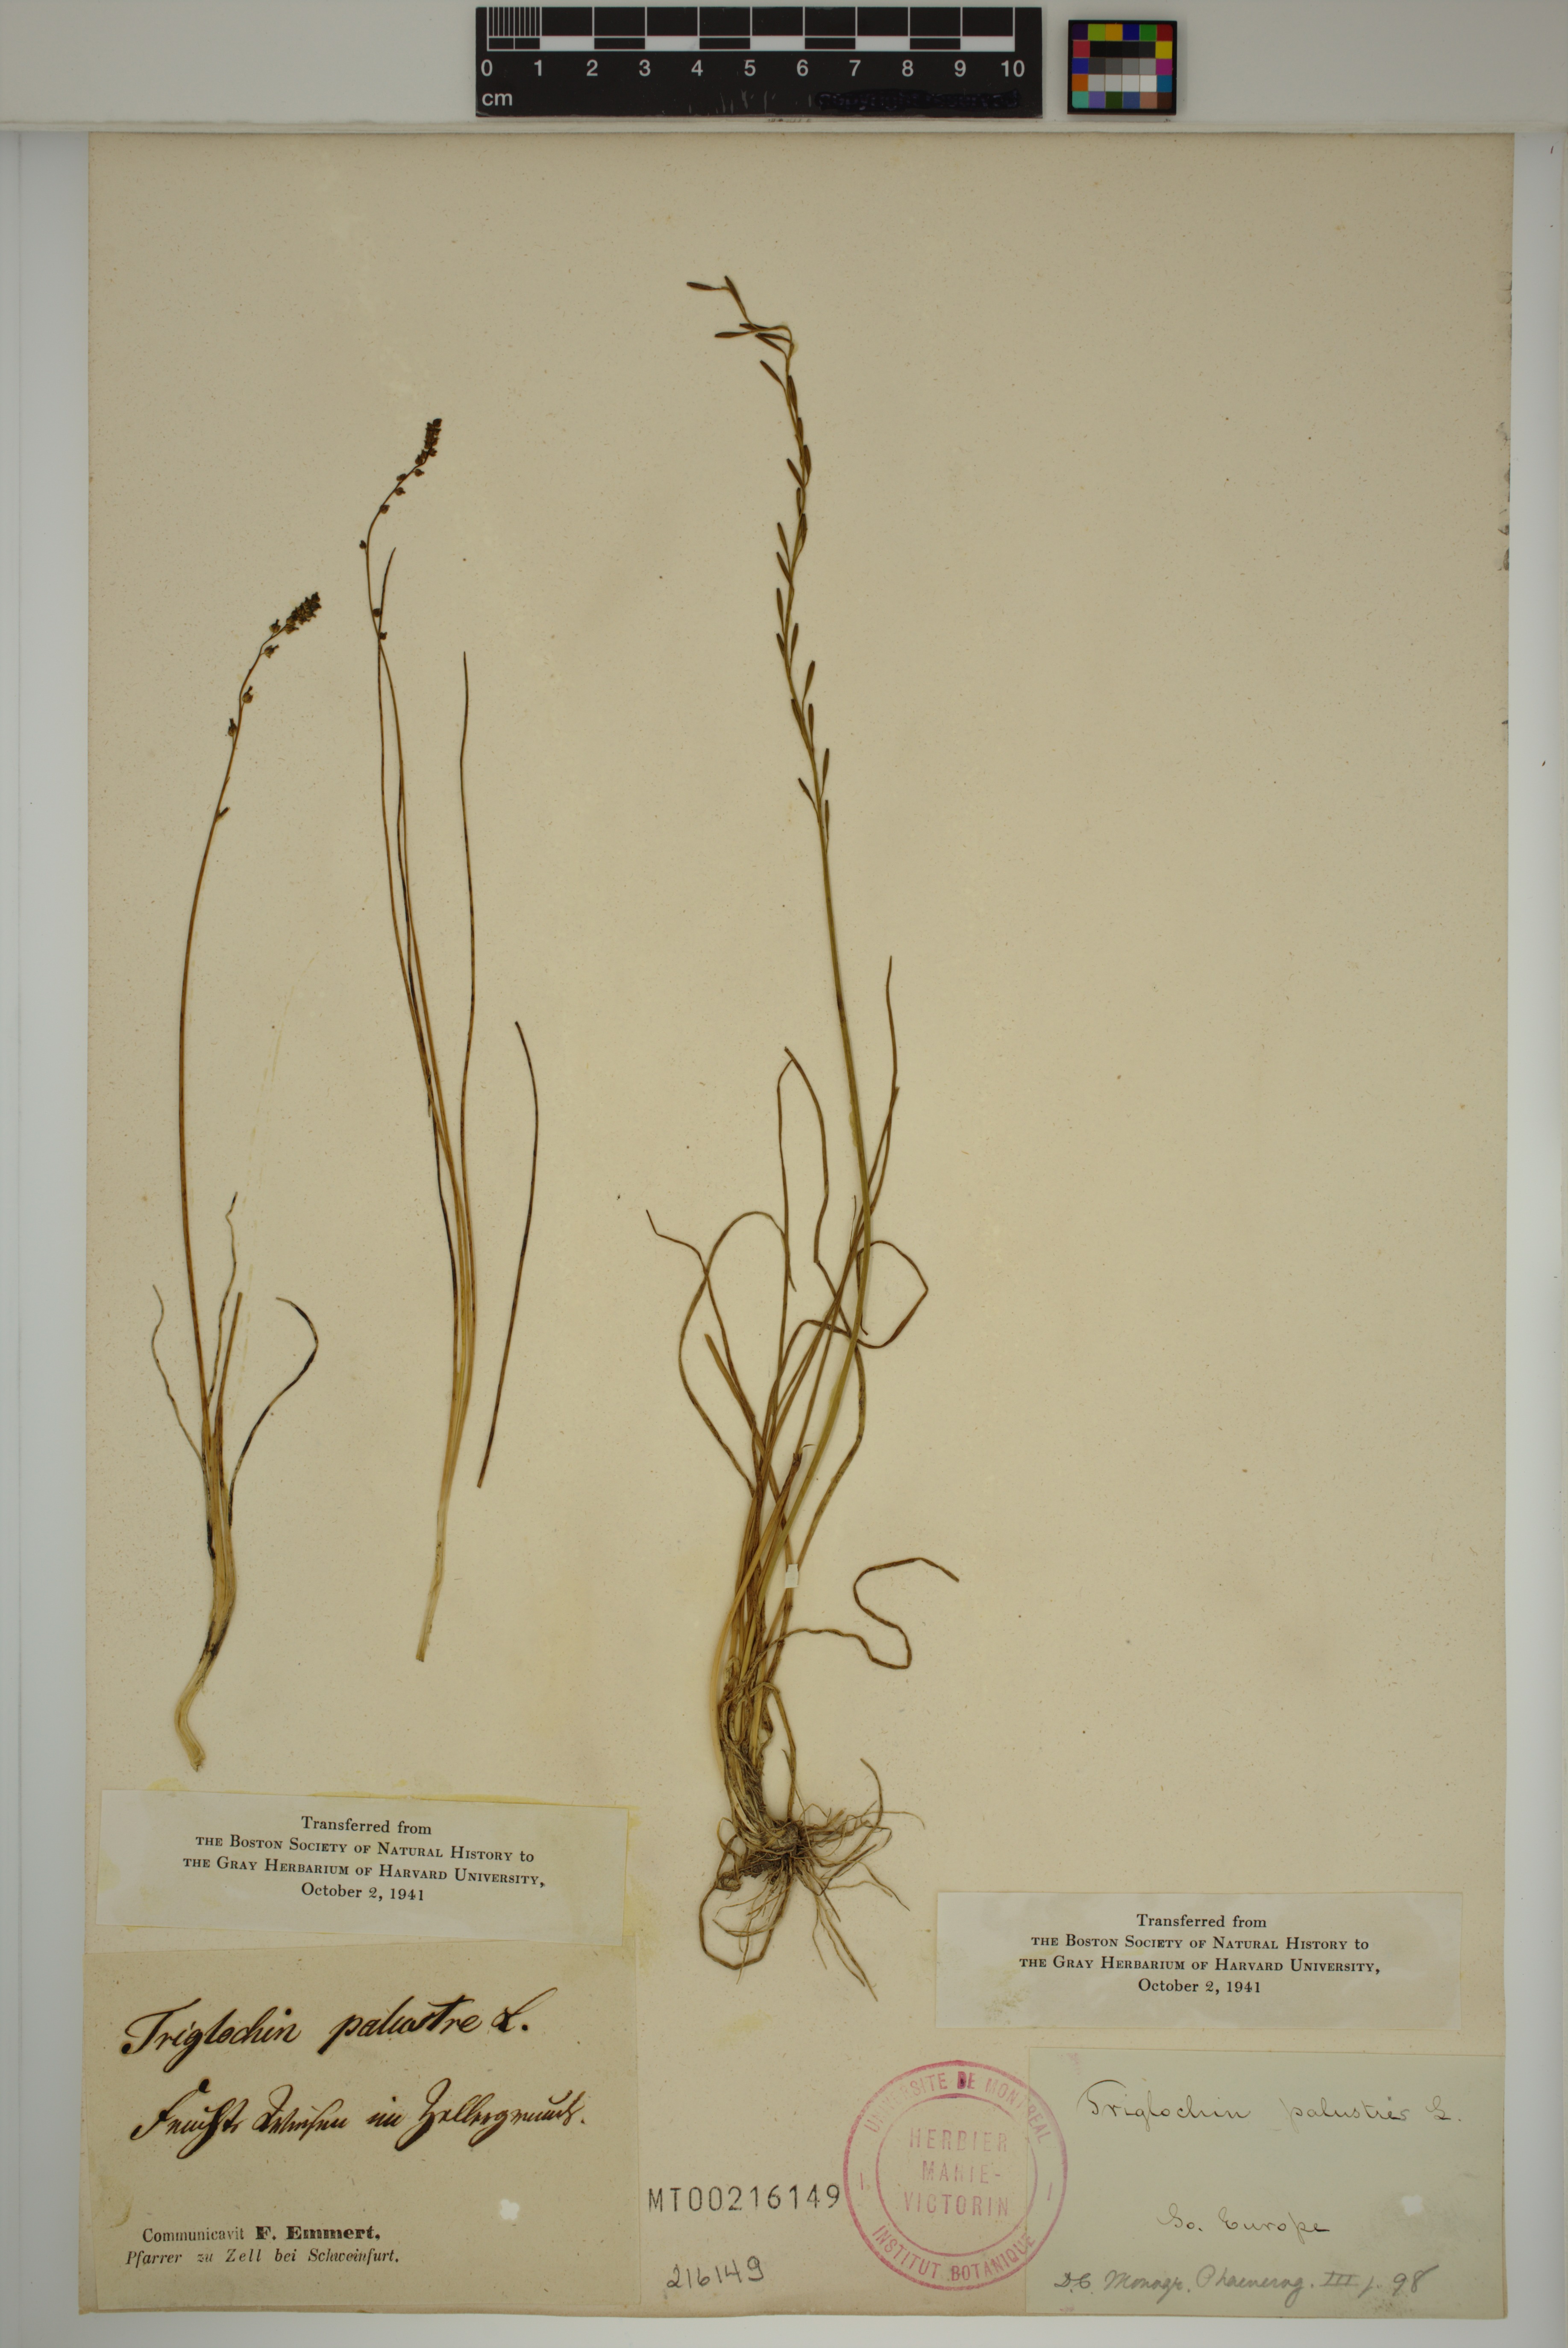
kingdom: Plantae
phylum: Tracheophyta
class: Liliopsida
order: Alismatales
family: Juncaginaceae
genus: Triglochin
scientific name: Triglochin palustris
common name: Marsh arrowgrass
